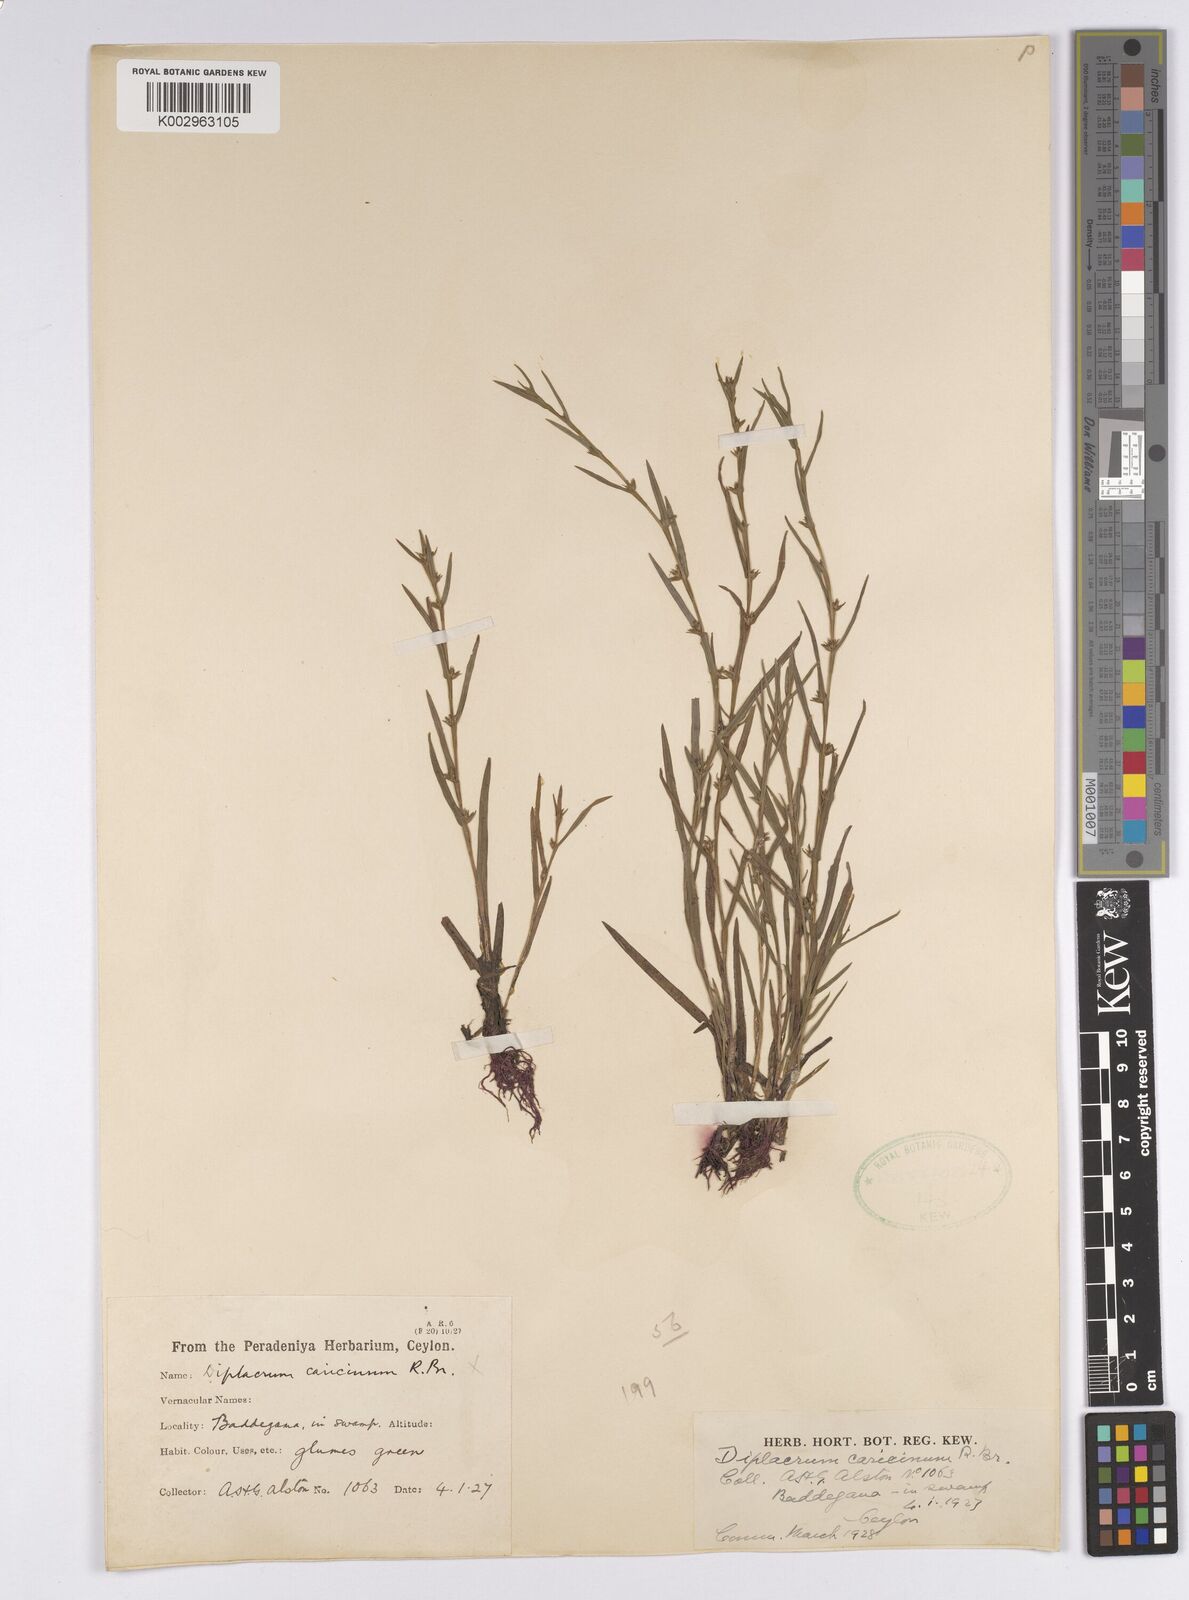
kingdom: Plantae
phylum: Tracheophyta
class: Liliopsida
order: Poales
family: Cyperaceae
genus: Diplacrum
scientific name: Diplacrum caricinum
